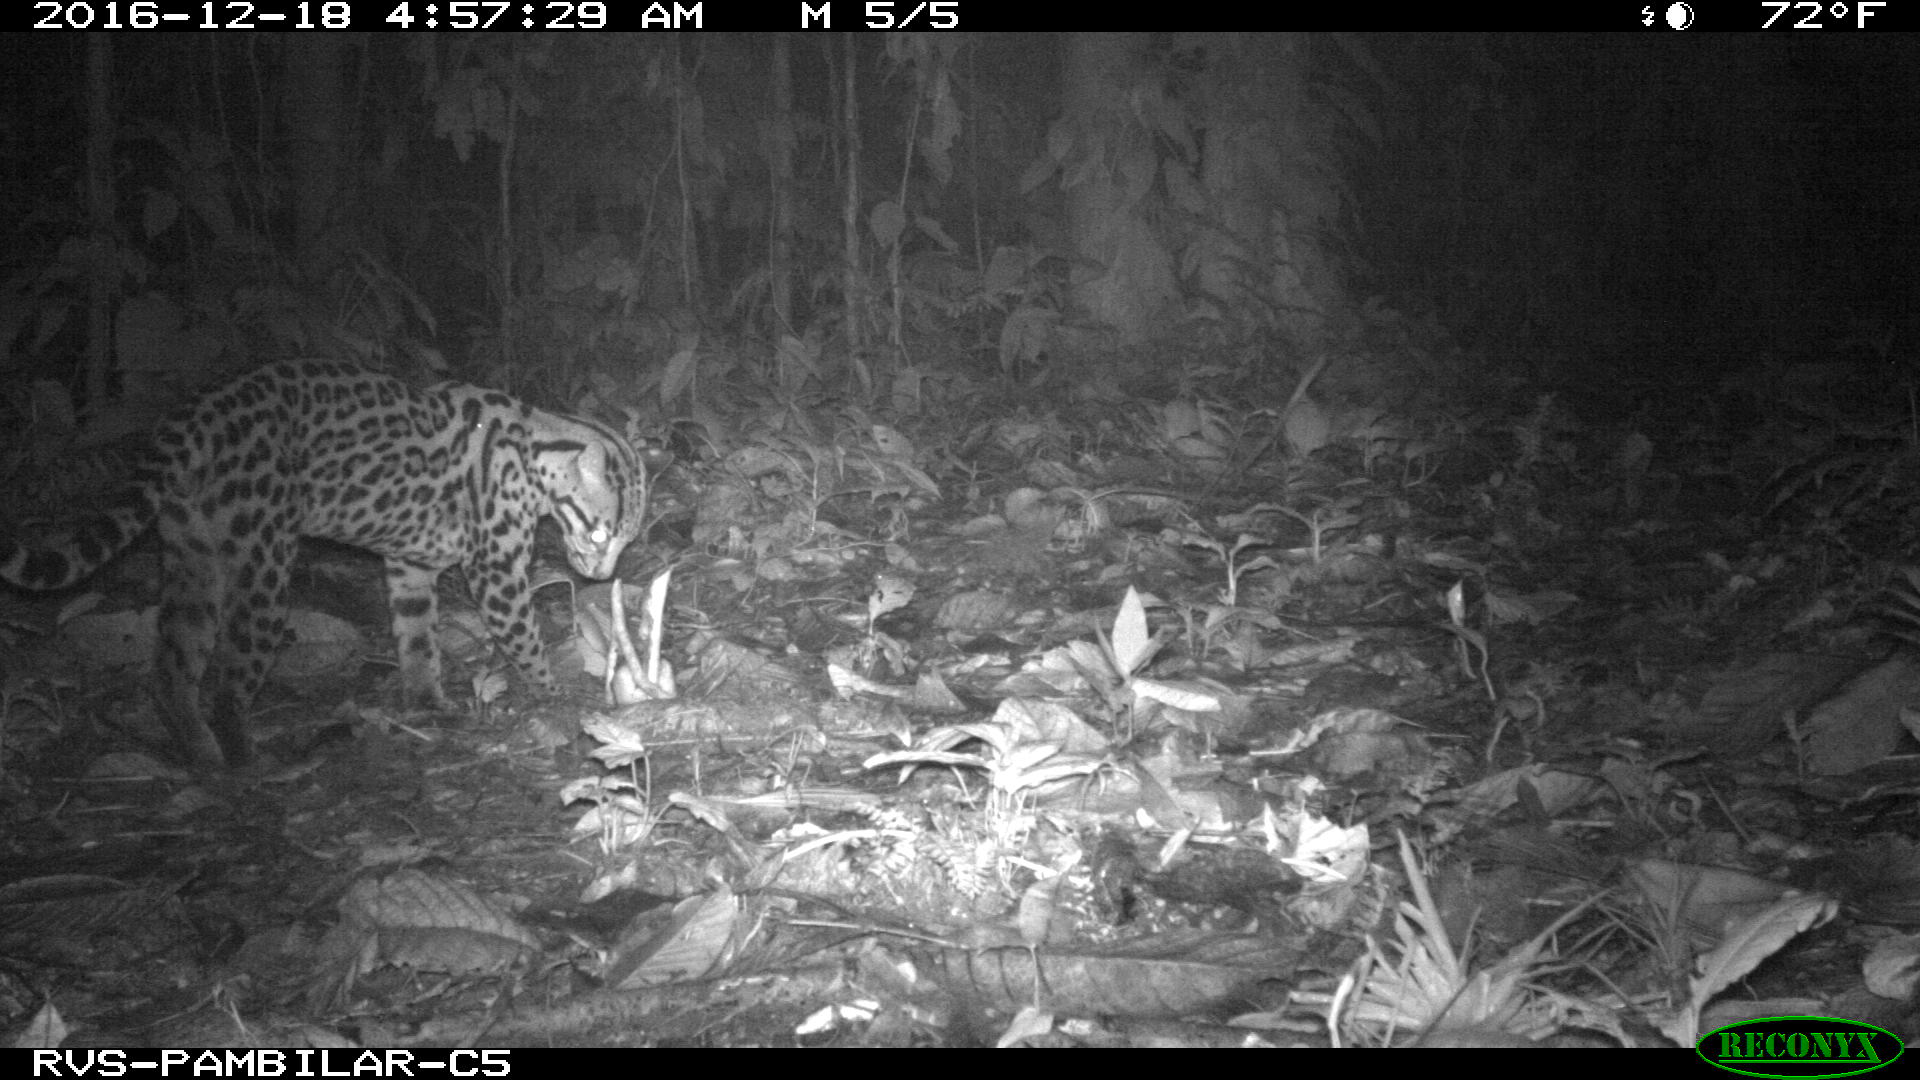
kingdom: Animalia
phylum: Chordata
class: Mammalia
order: Carnivora
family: Felidae
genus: Leopardus
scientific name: Leopardus pardalis
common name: Ocelot
